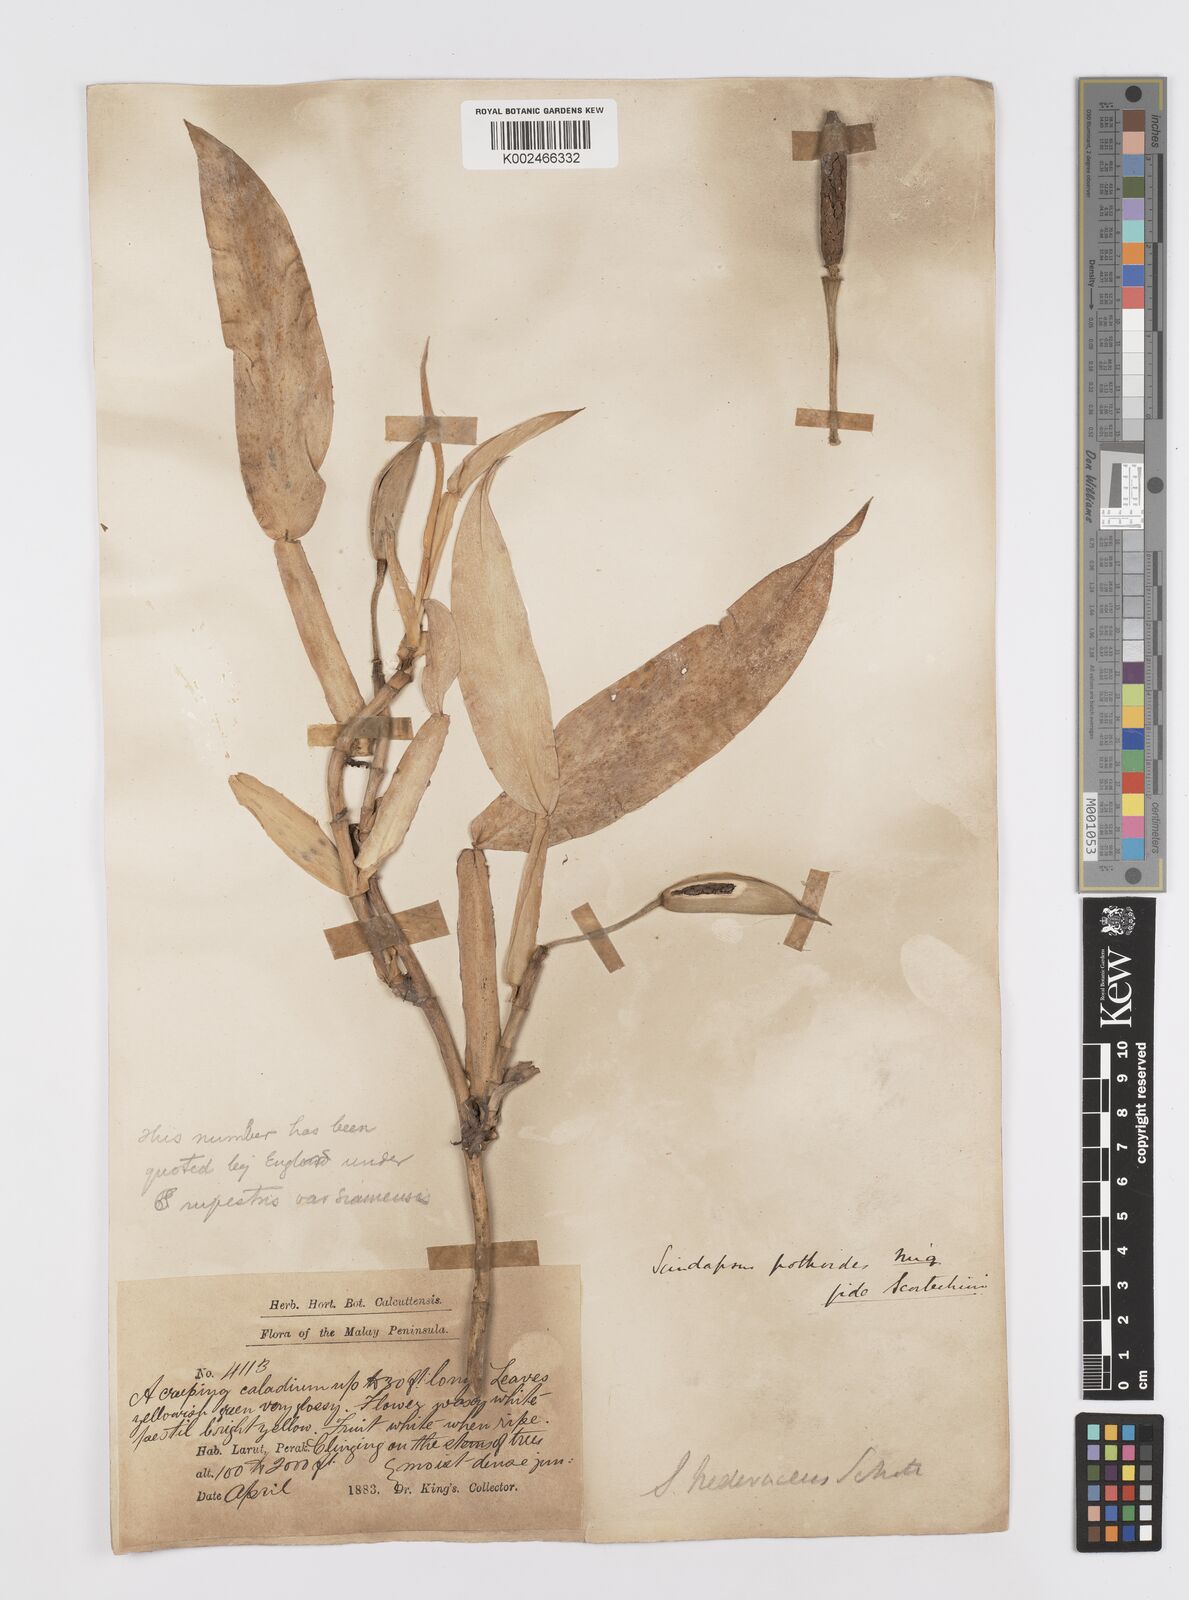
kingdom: Plantae
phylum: Tracheophyta
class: Liliopsida
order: Alismatales
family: Araceae
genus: Scindapsus
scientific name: Scindapsus hederaceus
